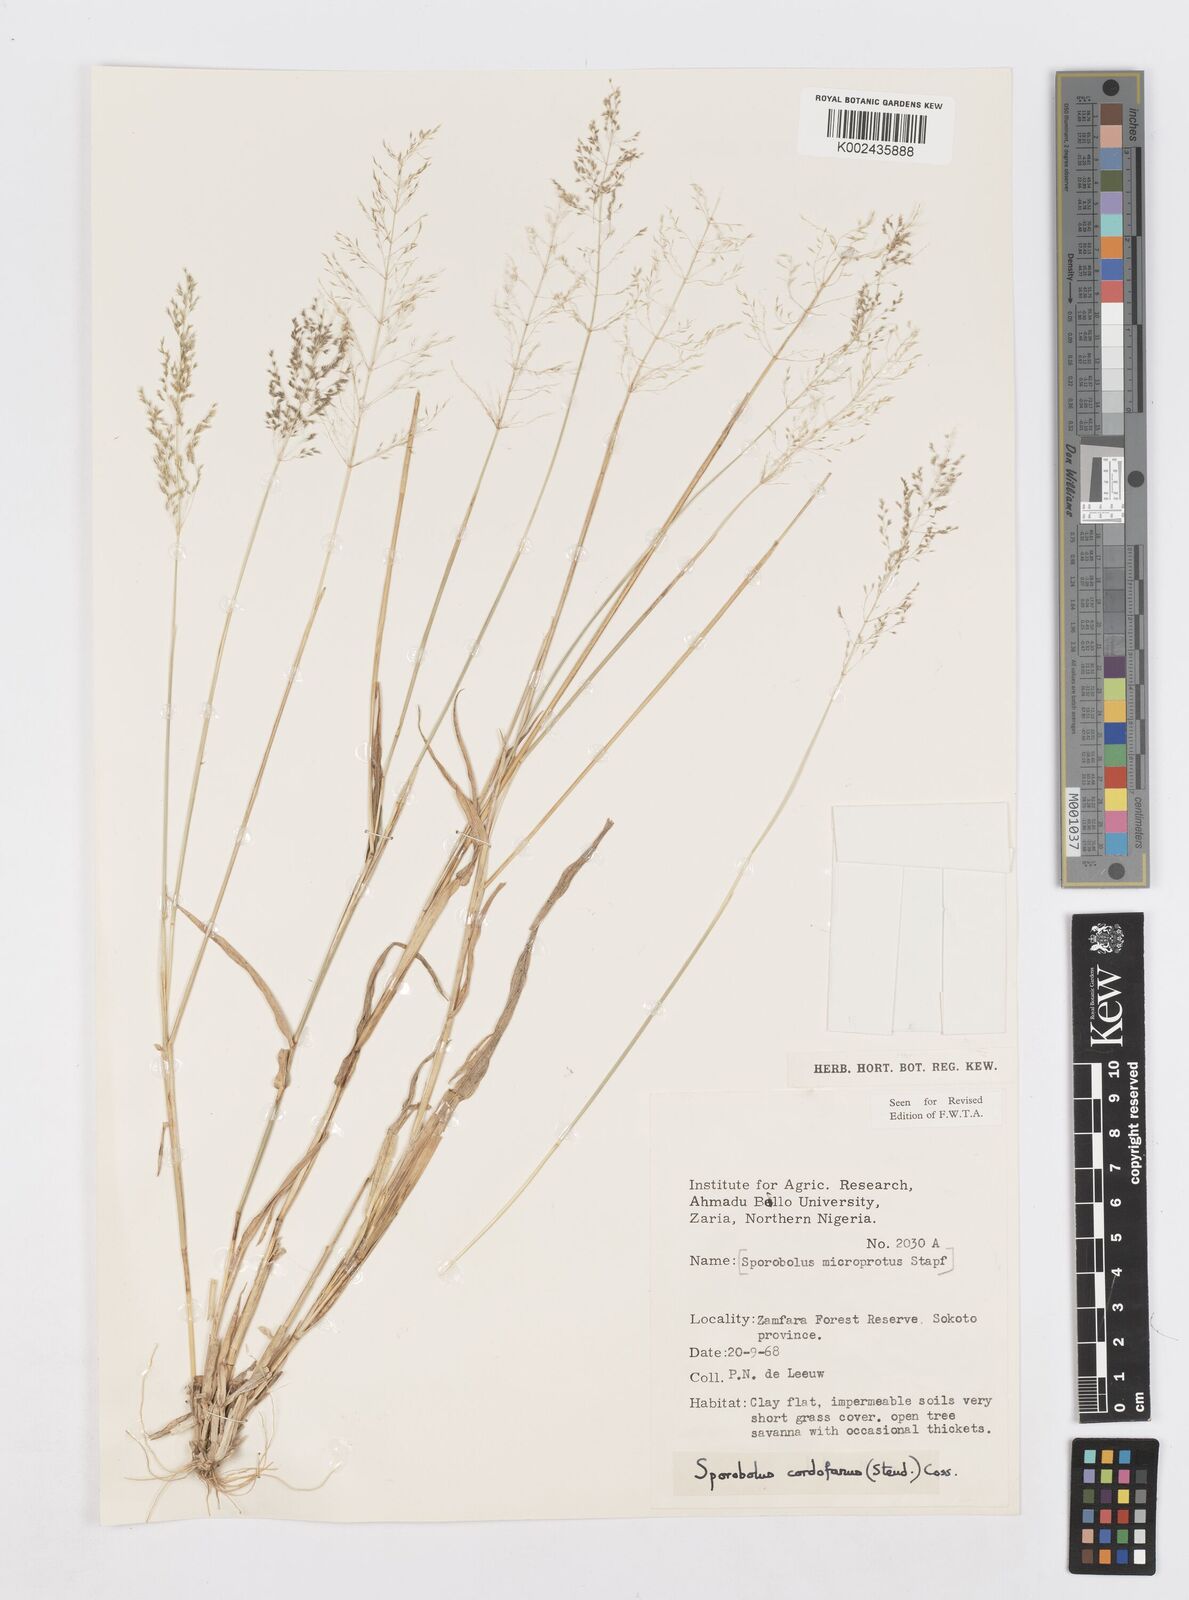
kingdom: Plantae
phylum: Tracheophyta
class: Liliopsida
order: Poales
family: Poaceae
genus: Sporobolus
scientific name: Sporobolus cordofanus
